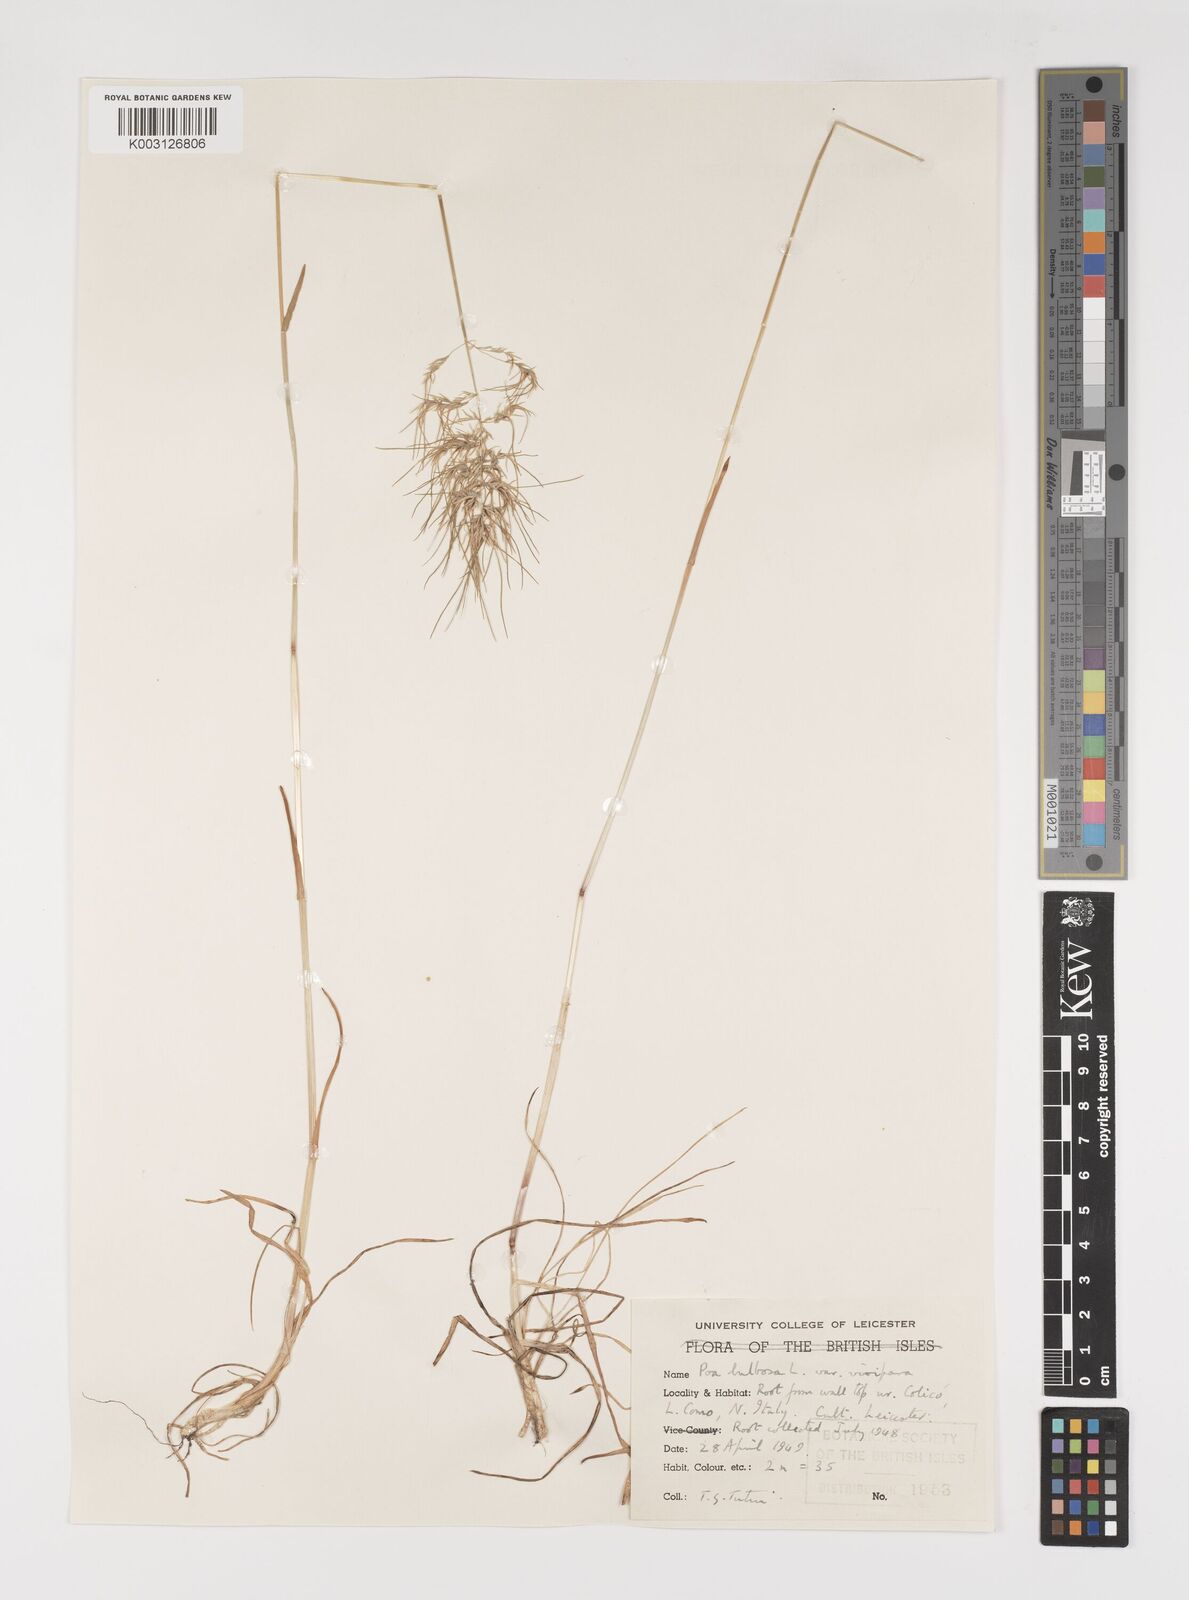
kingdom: Plantae
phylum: Tracheophyta
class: Liliopsida
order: Poales
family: Poaceae
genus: Poa
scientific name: Poa bulbosa
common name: Bulbous bluegrass
